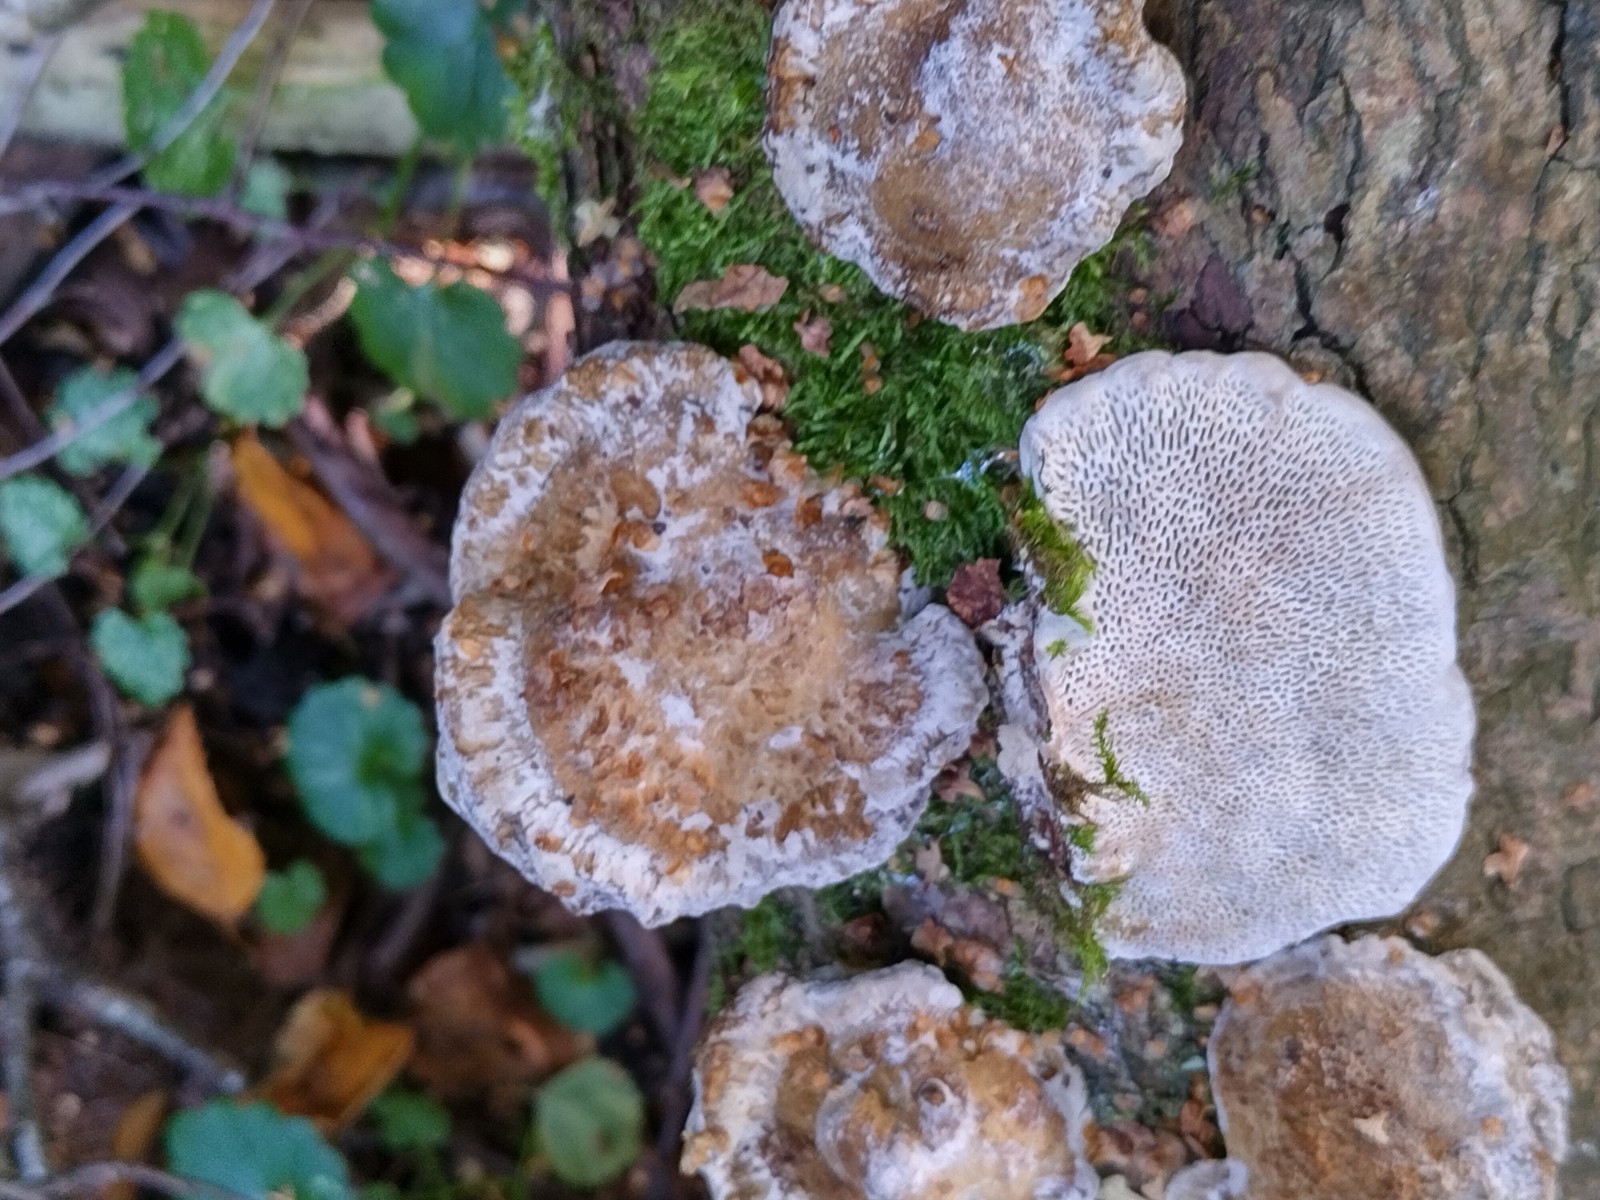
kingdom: Fungi
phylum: Basidiomycota
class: Agaricomycetes
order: Polyporales
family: Polyporaceae
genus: Daedaleopsis
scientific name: Daedaleopsis confragosa
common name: rødmende læderporesvamp
